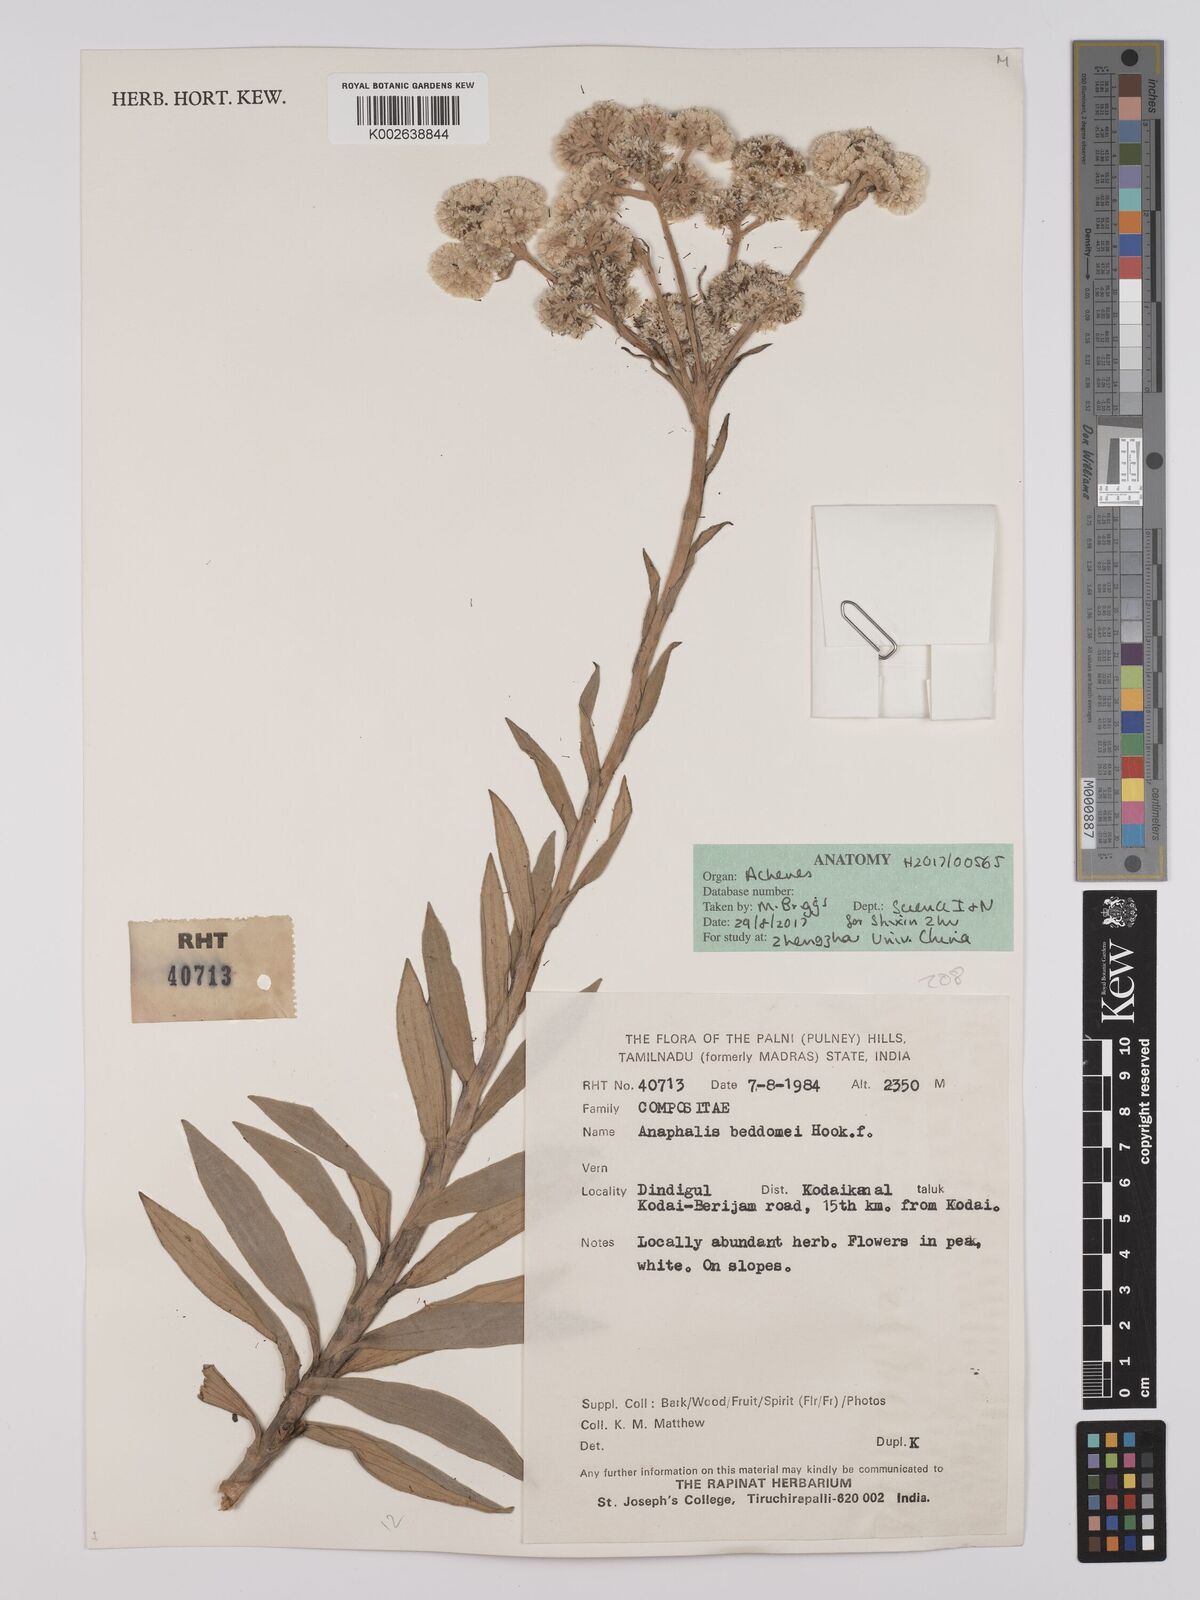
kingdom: Plantae
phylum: Tracheophyta
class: Magnoliopsida
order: Asterales
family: Asteraceae
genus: Anaphalis
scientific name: Anaphalis beddomei
